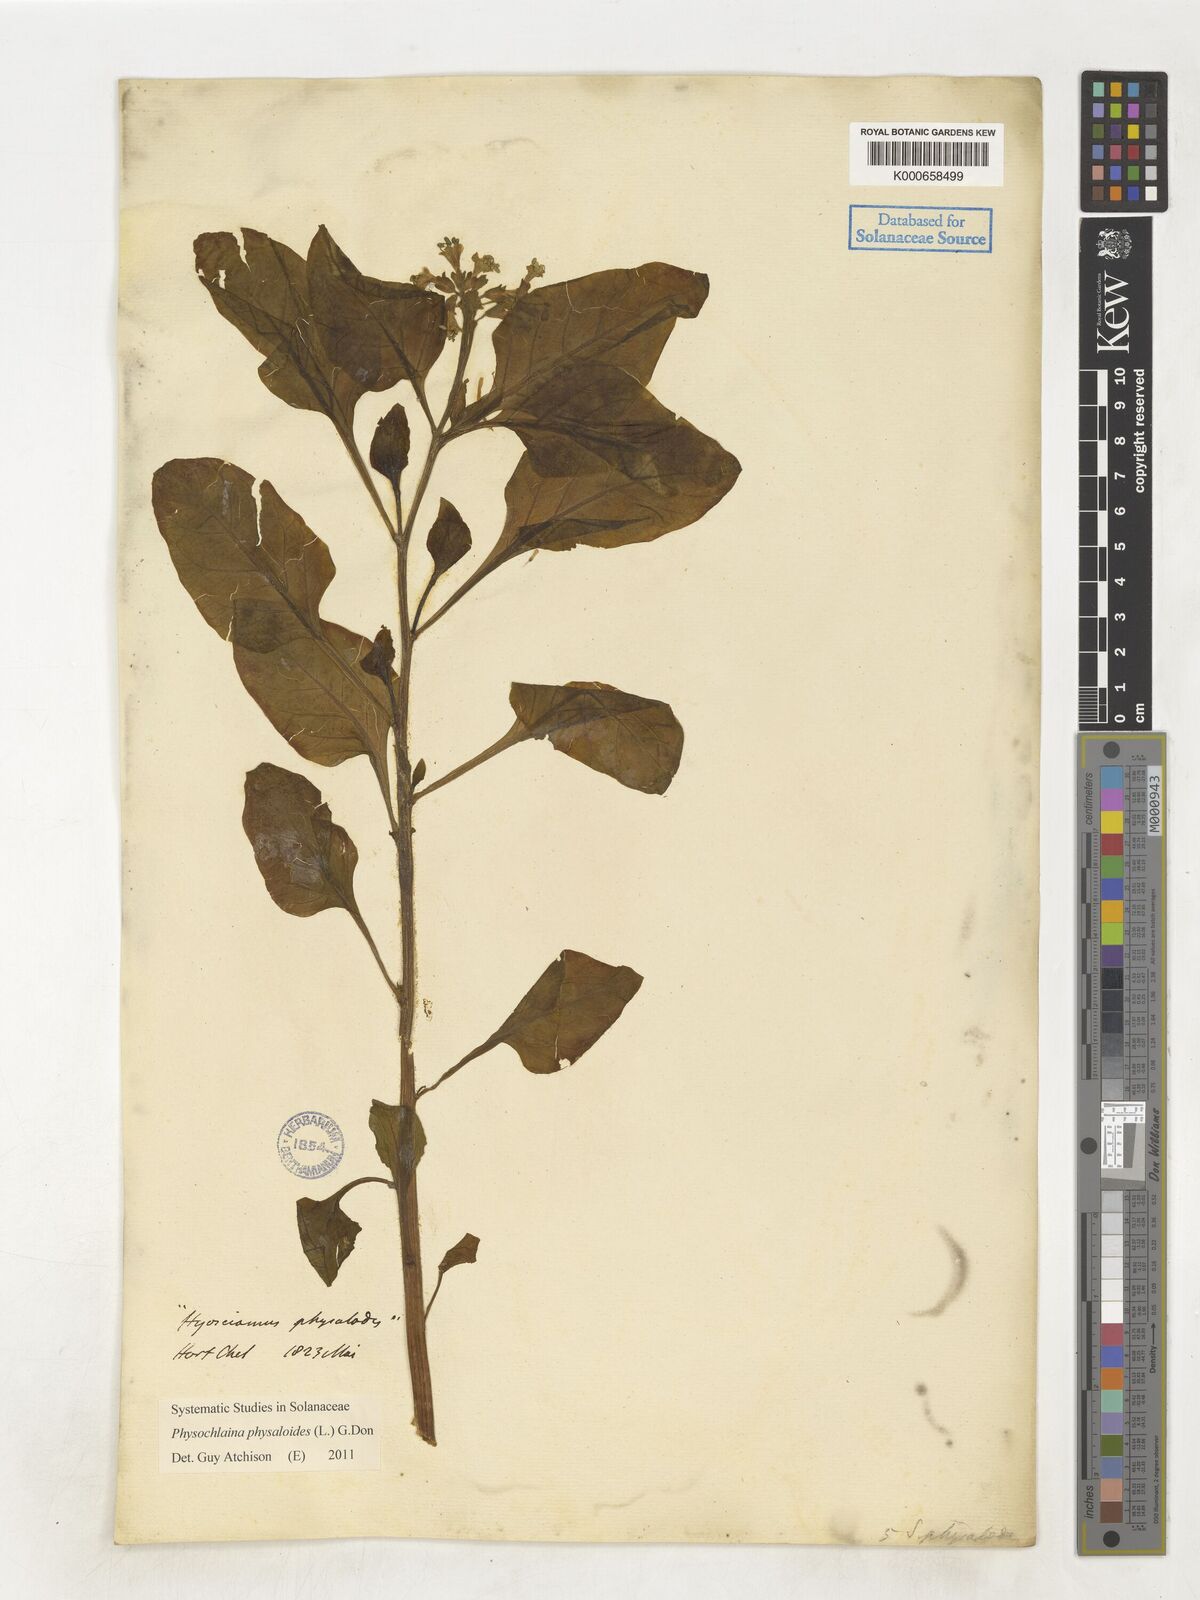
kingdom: Plantae
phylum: Tracheophyta
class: Magnoliopsida
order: Solanales
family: Solanaceae
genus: Physochlaina
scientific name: Physochlaina physaloides
